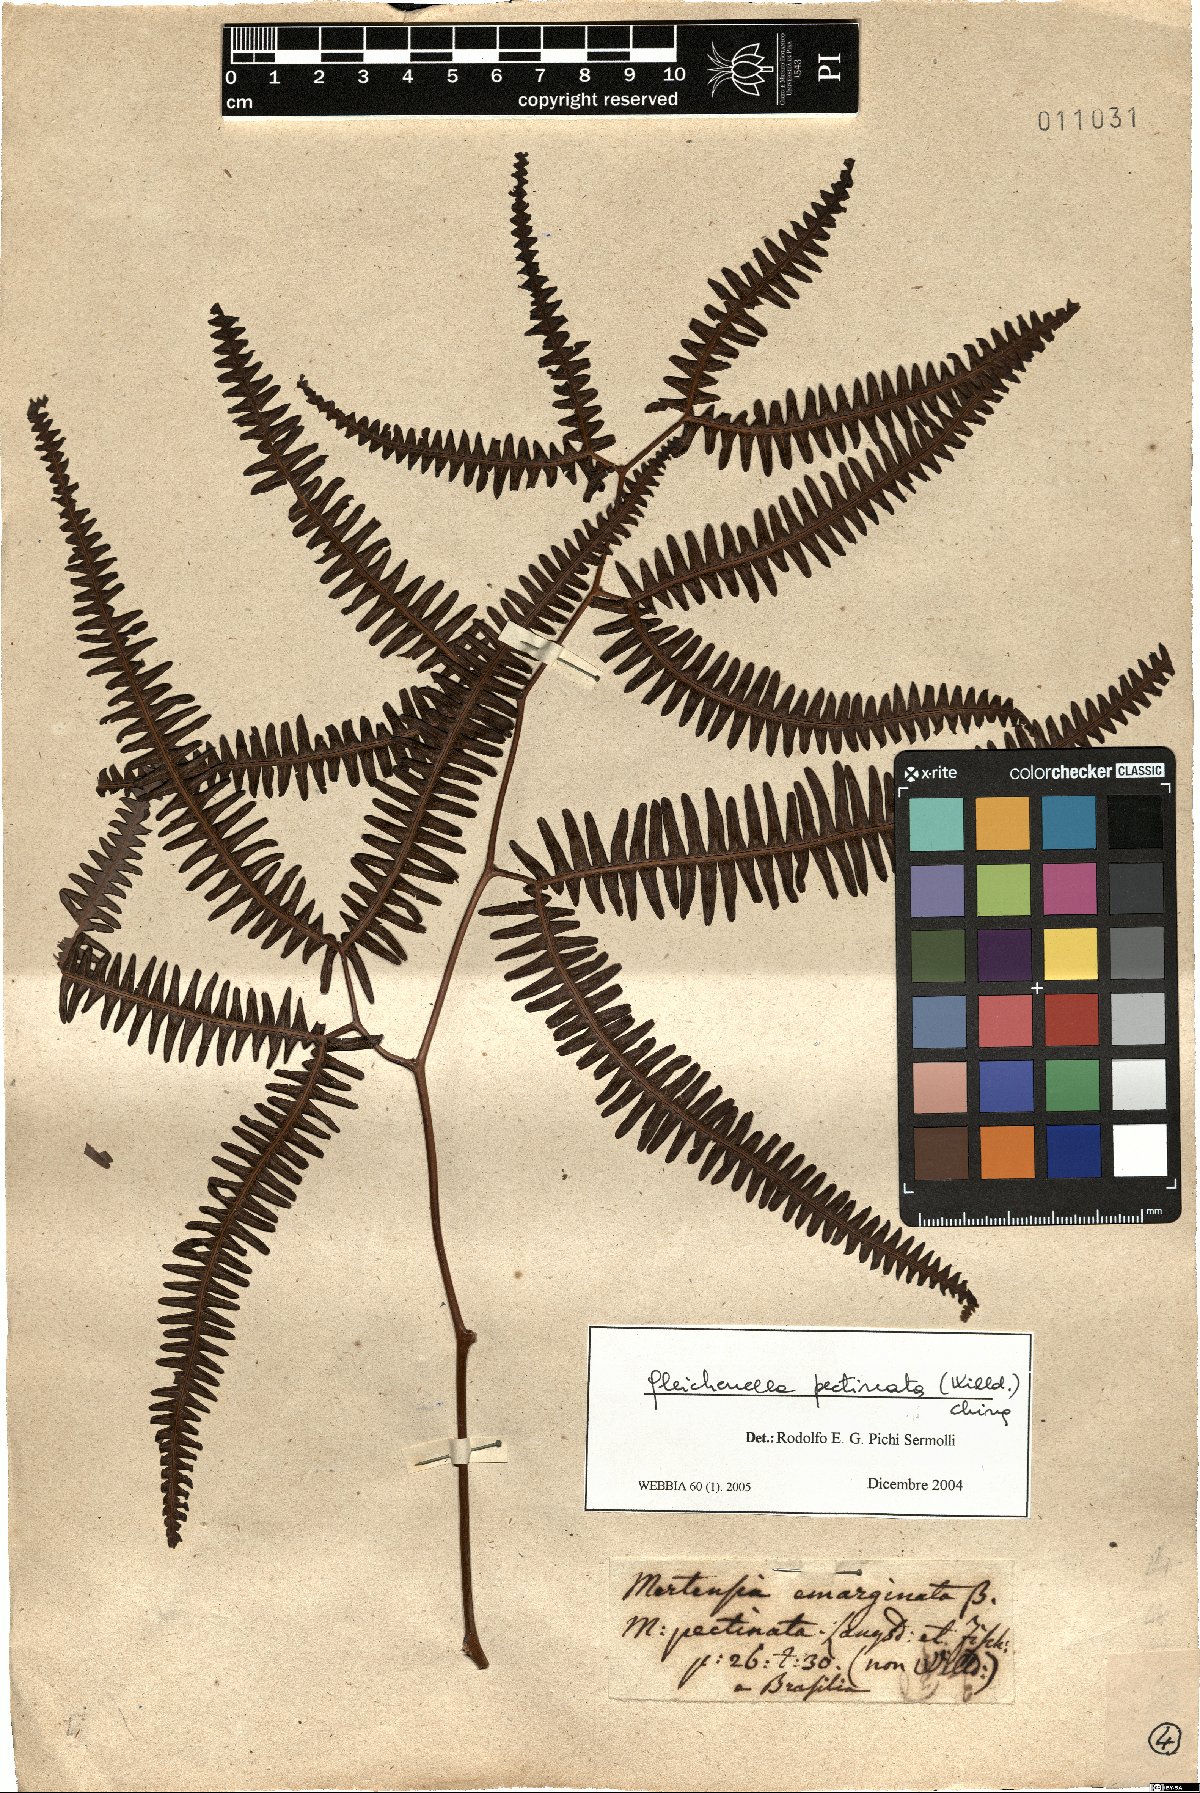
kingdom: Plantae
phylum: Tracheophyta
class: Polypodiopsida
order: Gleicheniales
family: Gleicheniaceae
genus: Gleichenella
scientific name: Gleichenella pectinata
